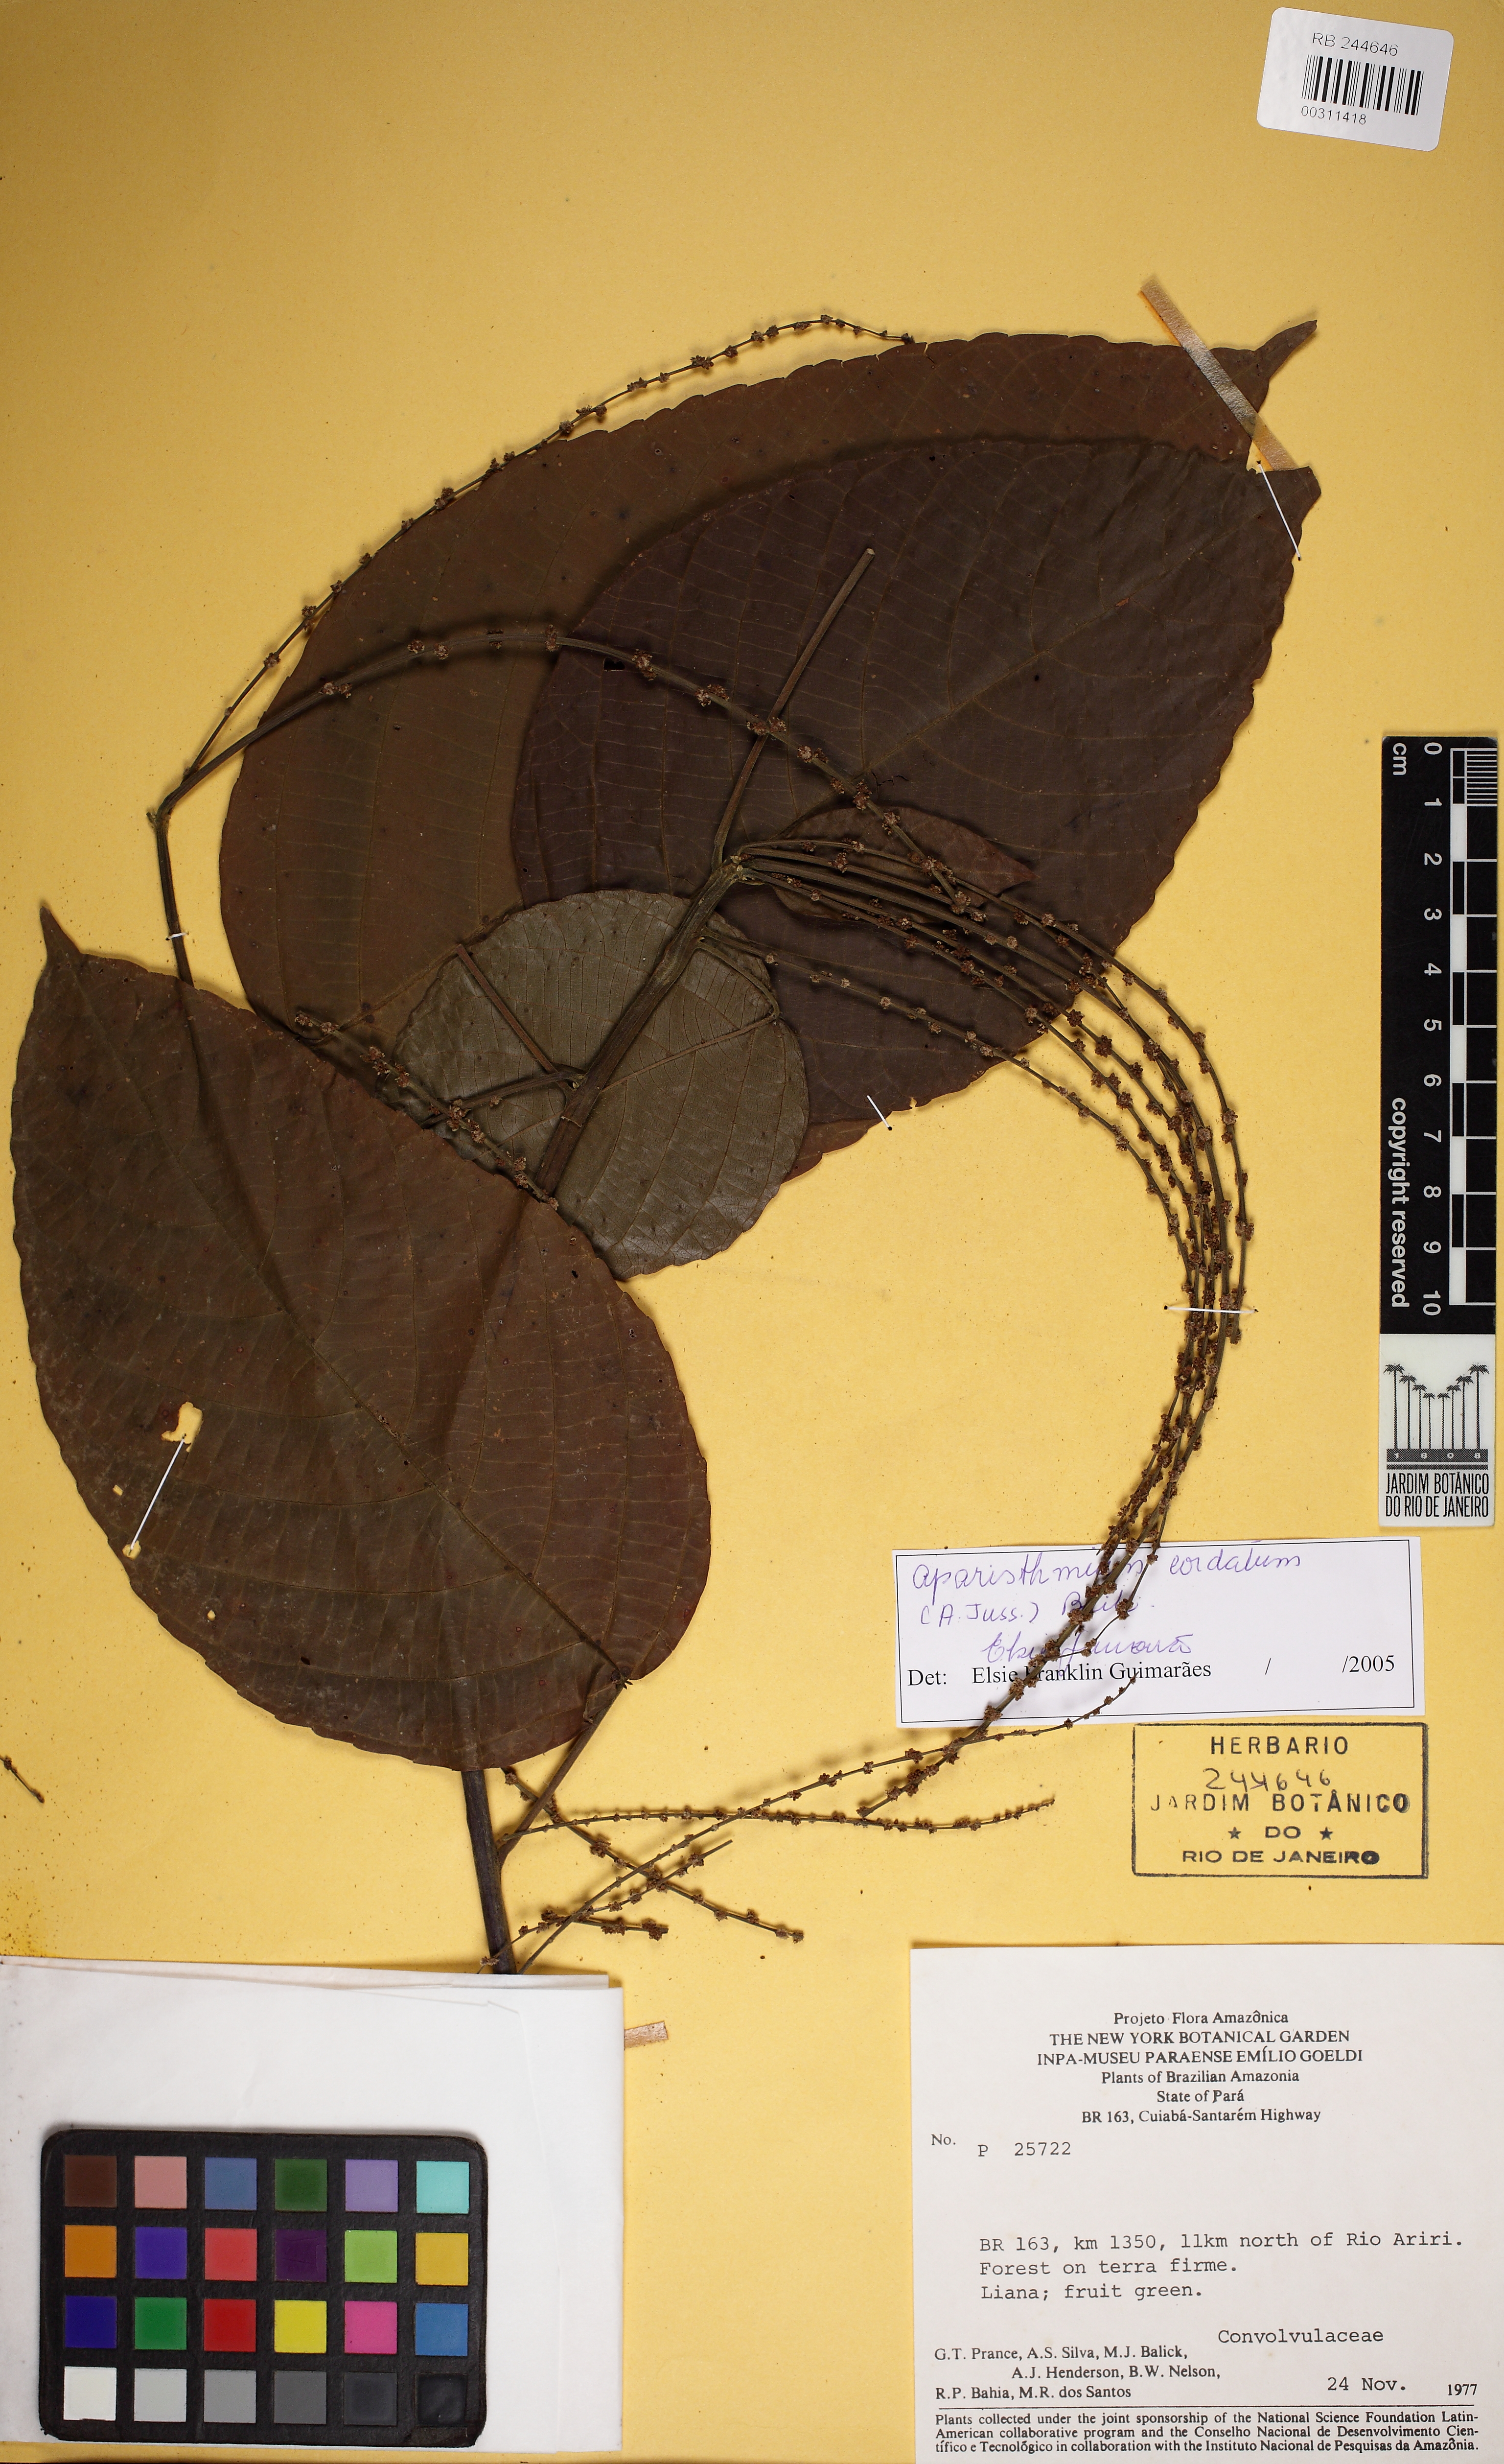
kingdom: Plantae
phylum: Tracheophyta
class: Magnoliopsida
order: Malpighiales
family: Euphorbiaceae
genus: Aparisthmium
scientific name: Aparisthmium cordatum
